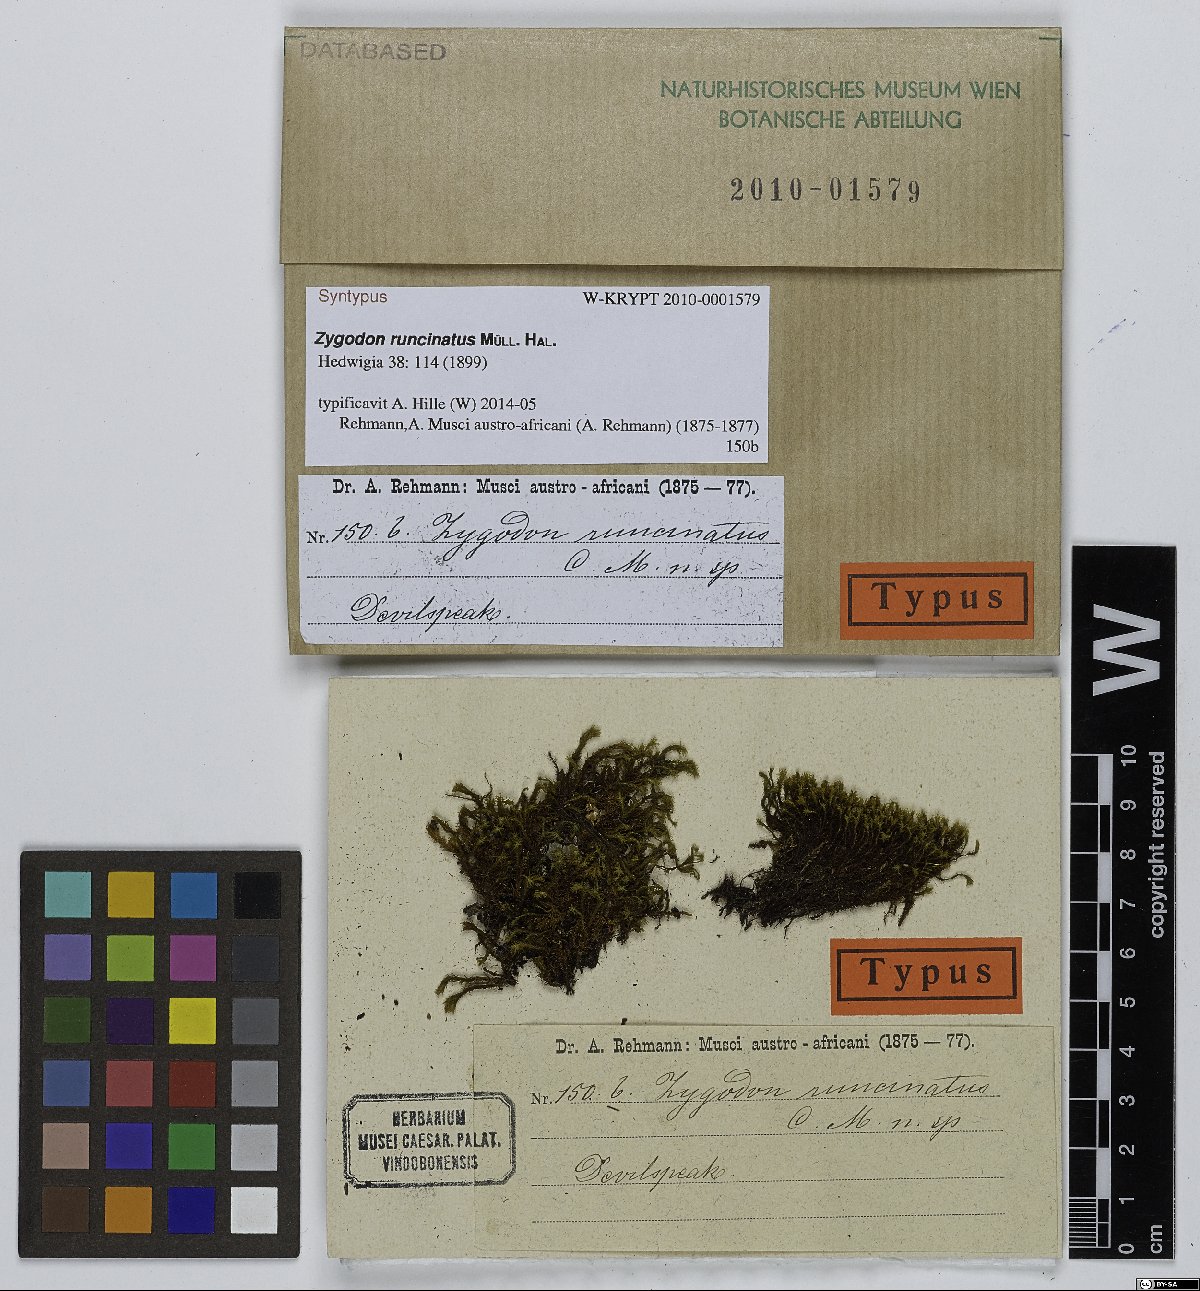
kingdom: Plantae
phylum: Bryophyta
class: Bryopsida
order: Orthotrichales
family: Orthotrichaceae
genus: Zygodon
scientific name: Zygodon runcinatus
